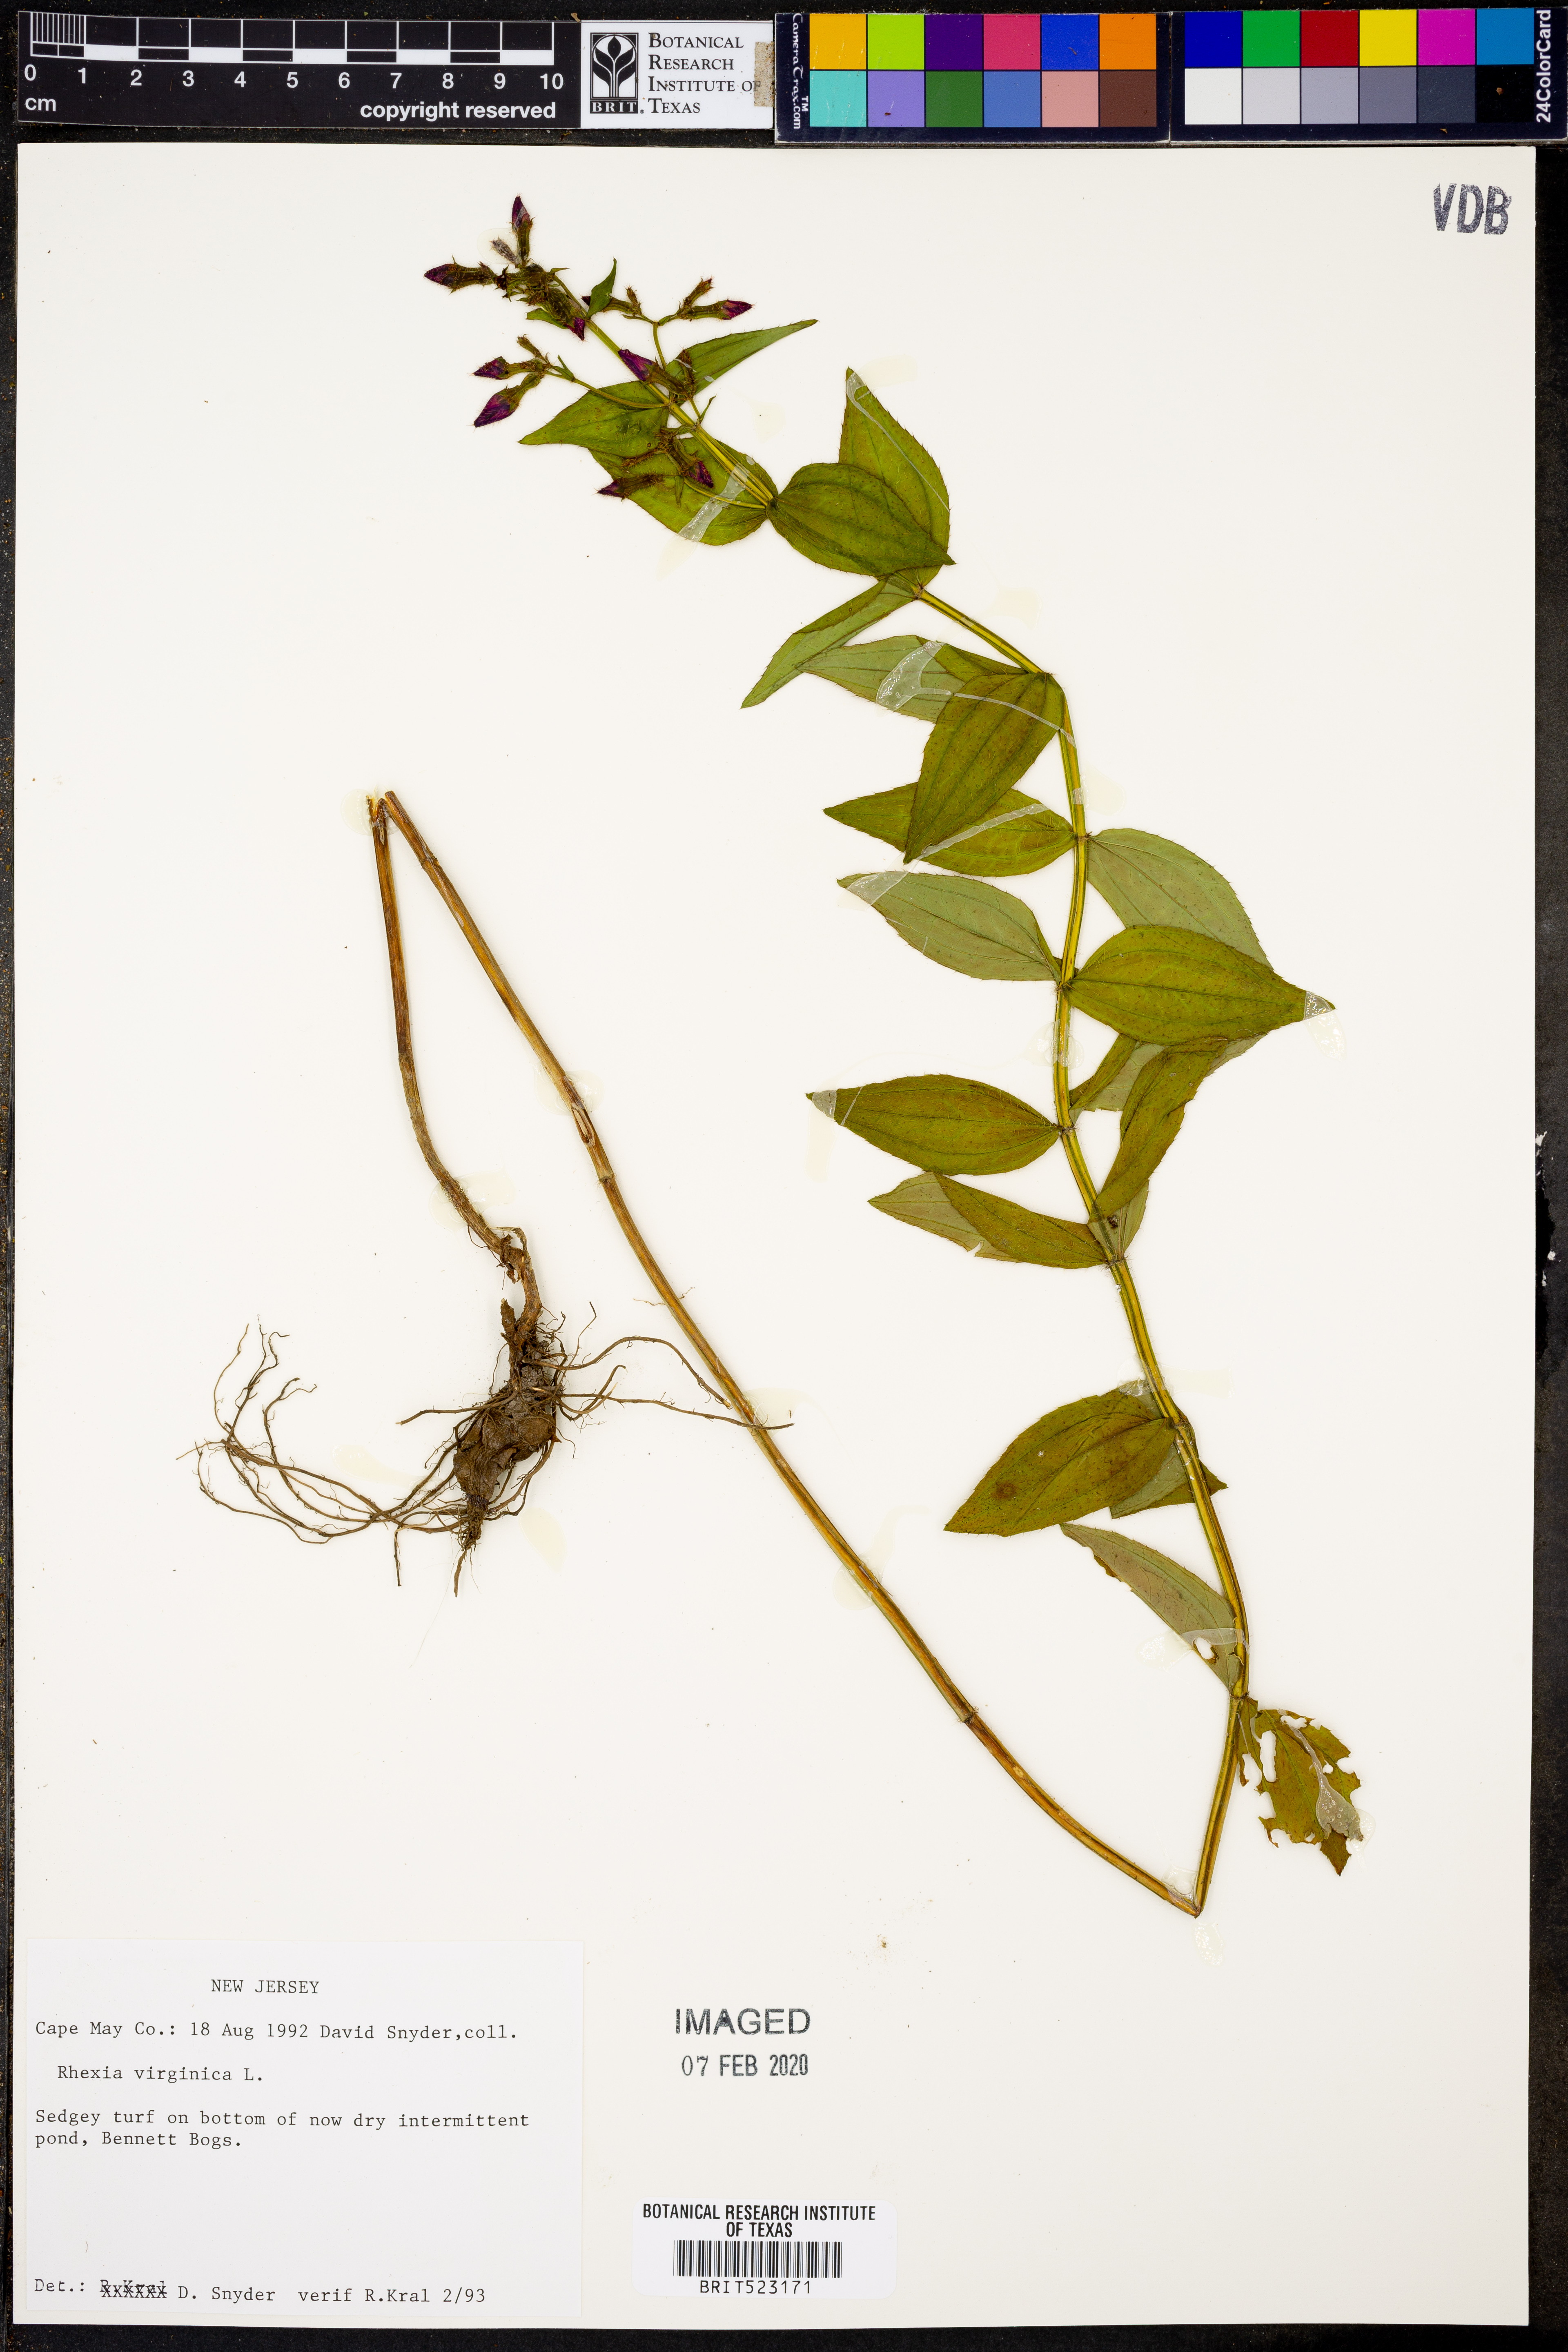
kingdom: Plantae
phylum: Tracheophyta
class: Magnoliopsida
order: Myrtales
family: Melastomataceae
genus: Rhexia
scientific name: Rhexia virginica
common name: Common meadow beauty
